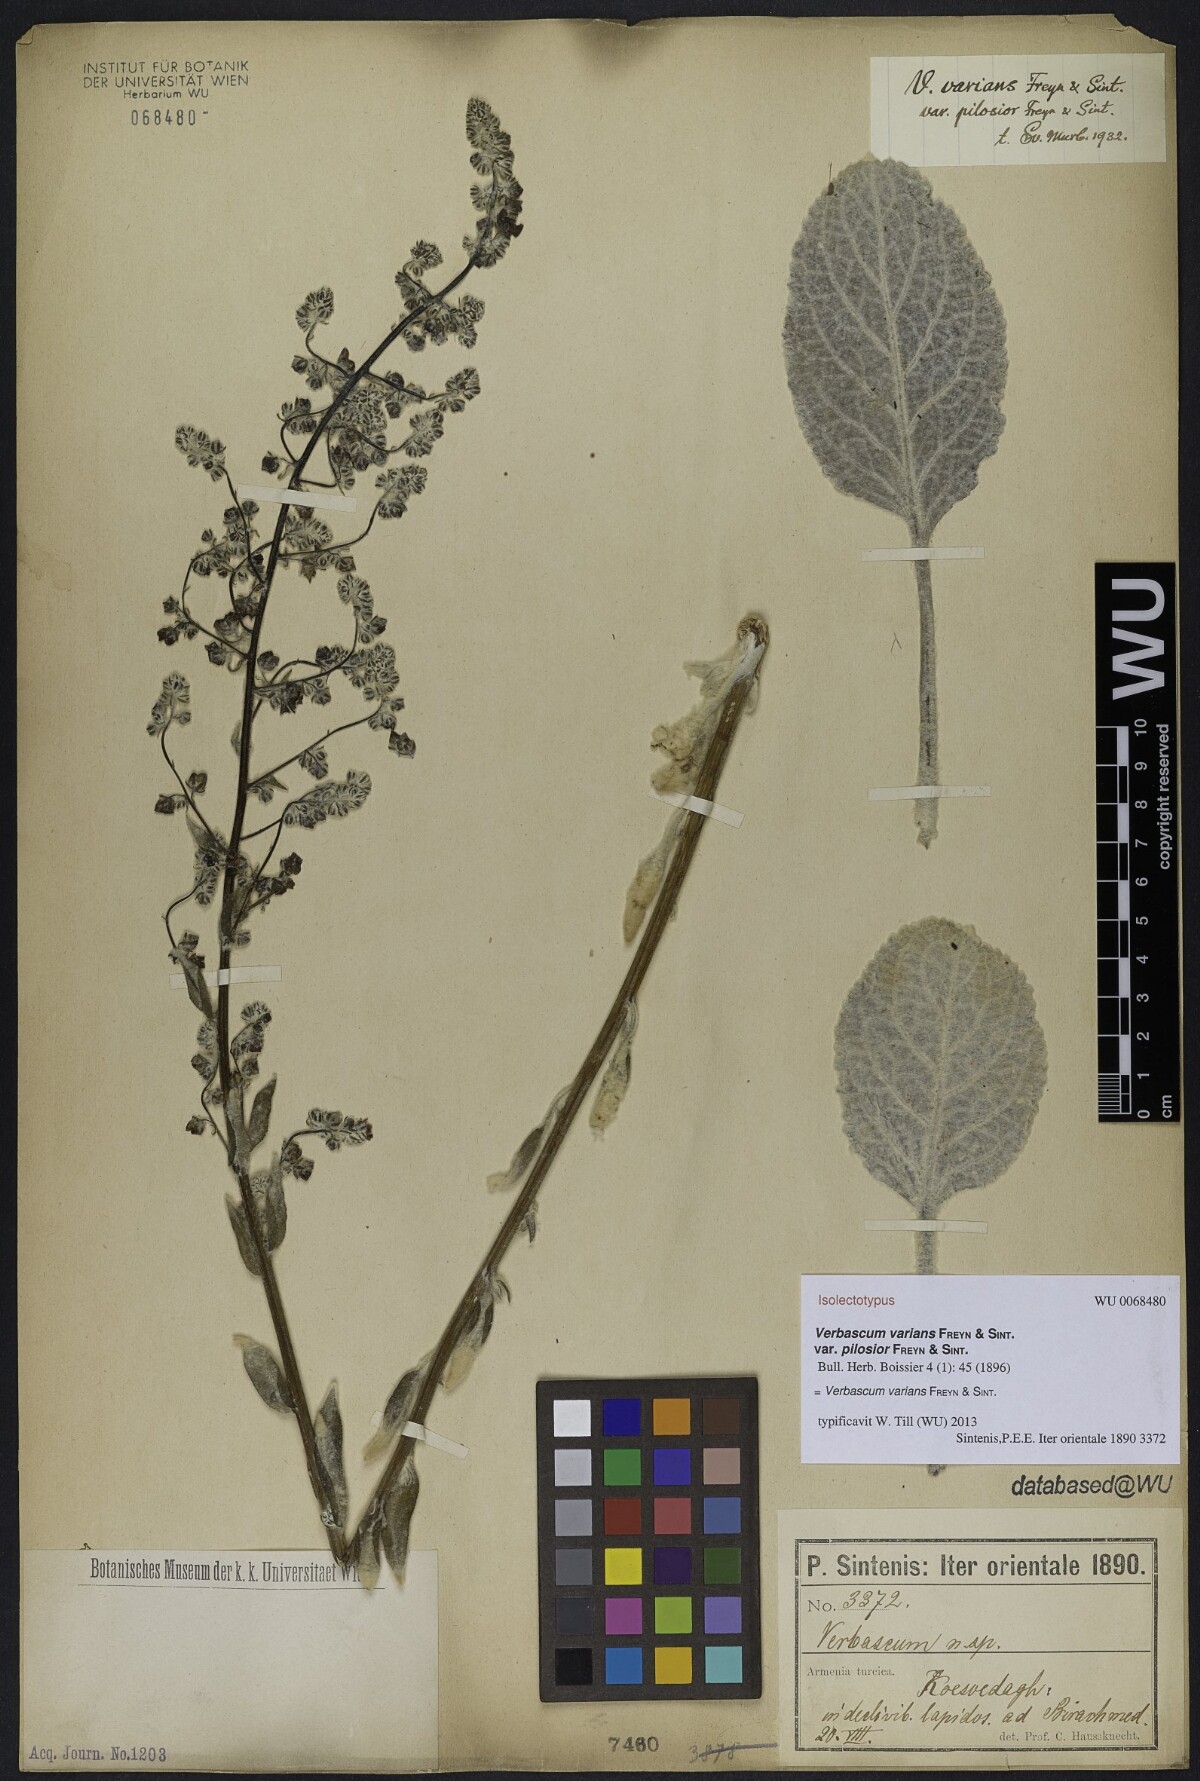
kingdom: Plantae
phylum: Tracheophyta
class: Magnoliopsida
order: Lamiales
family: Scrophulariaceae
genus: Verbascum
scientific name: Verbascum varians
